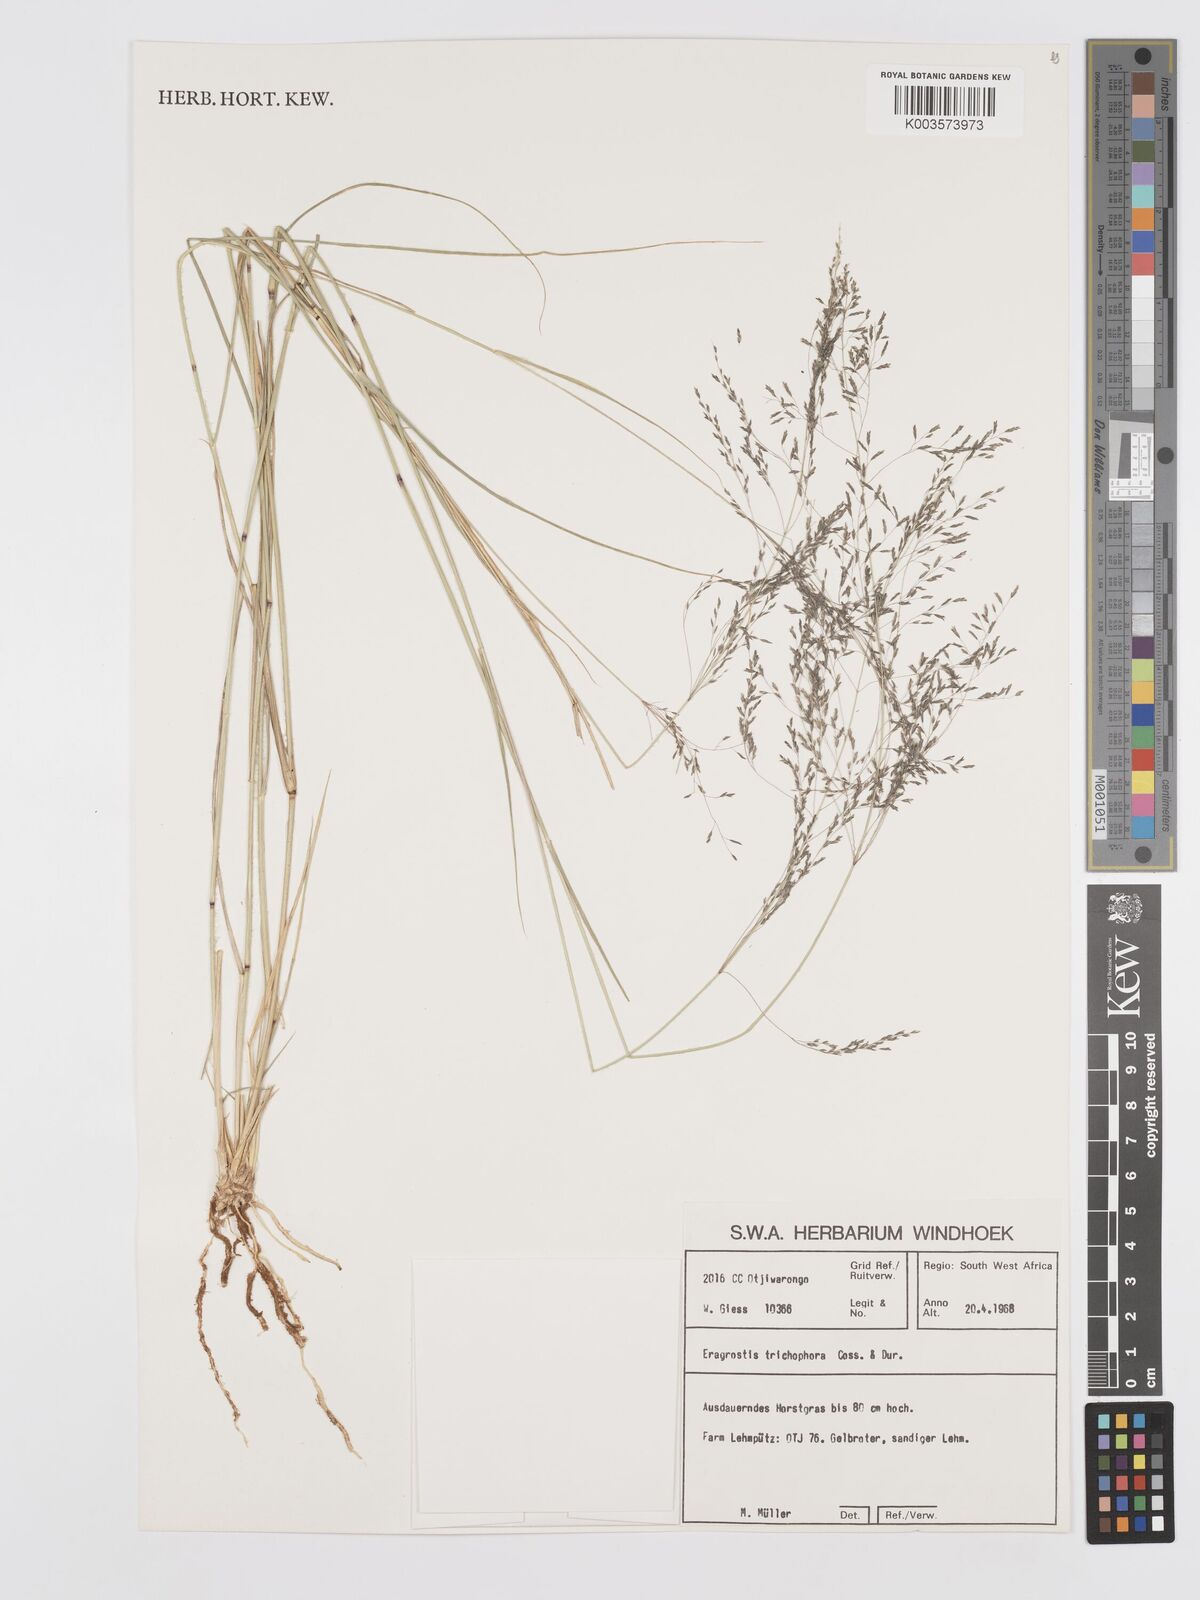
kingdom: Plantae
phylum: Tracheophyta
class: Liliopsida
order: Poales
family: Poaceae
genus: Eragrostis
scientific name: Eragrostis cylindriflora
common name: Cylinderflower lovegrass
